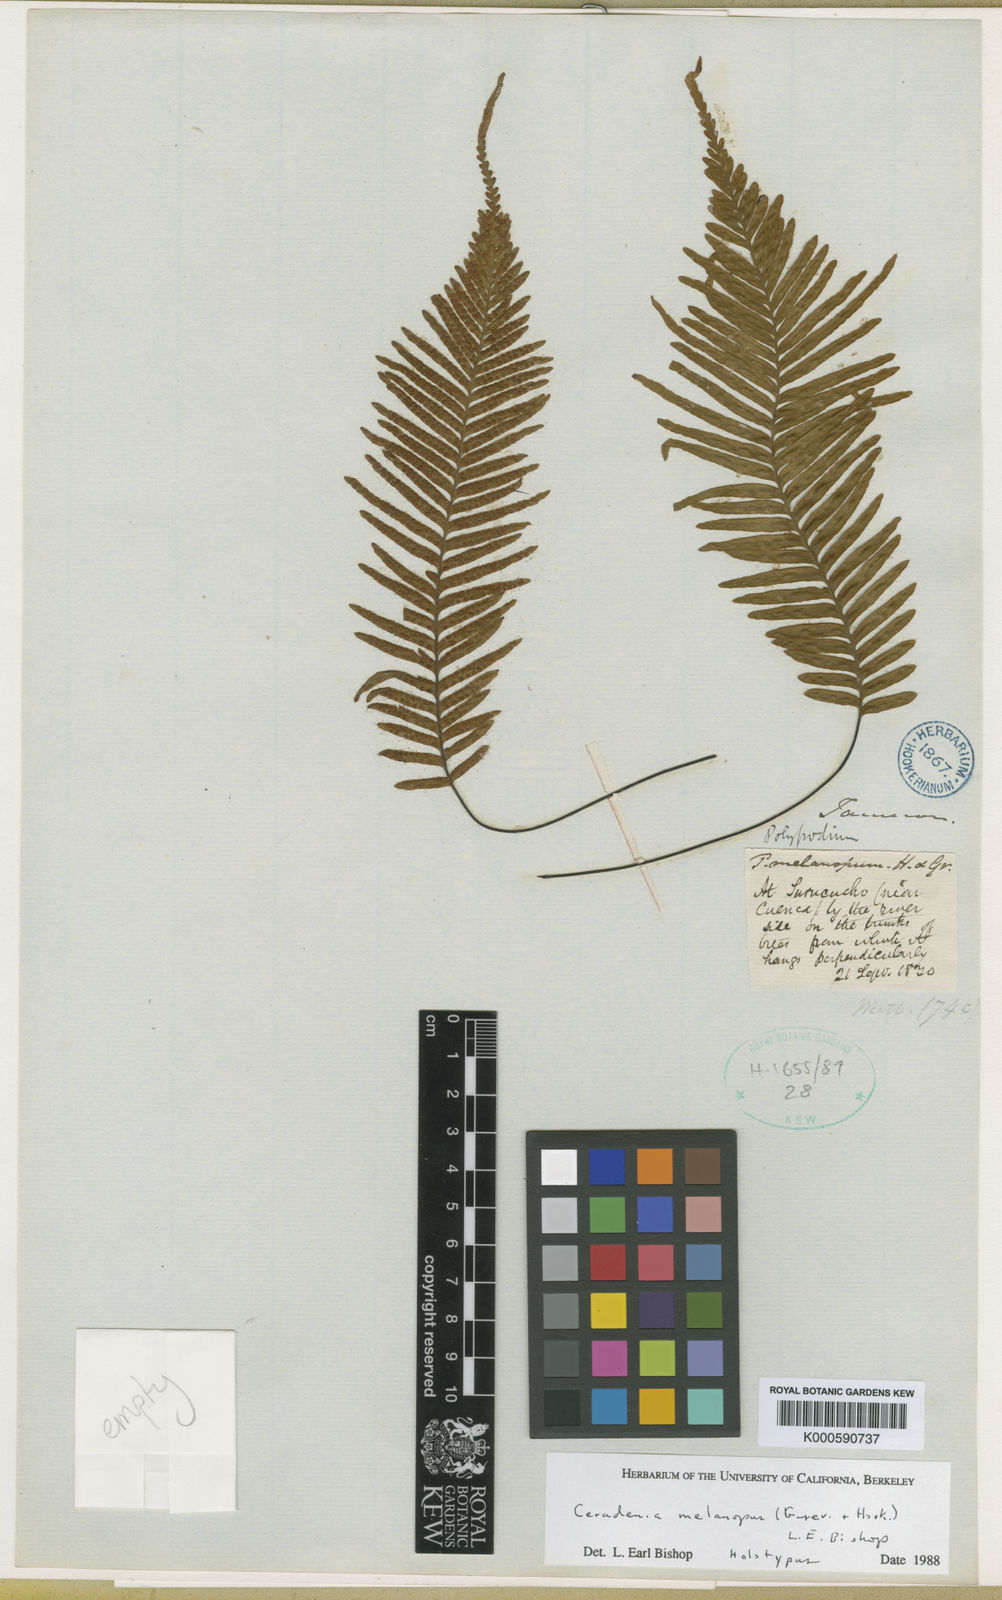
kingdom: Plantae
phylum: Tracheophyta
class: Polypodiopsida
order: Polypodiales
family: Polypodiaceae
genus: Ceradenia
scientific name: Ceradenia melanopus
